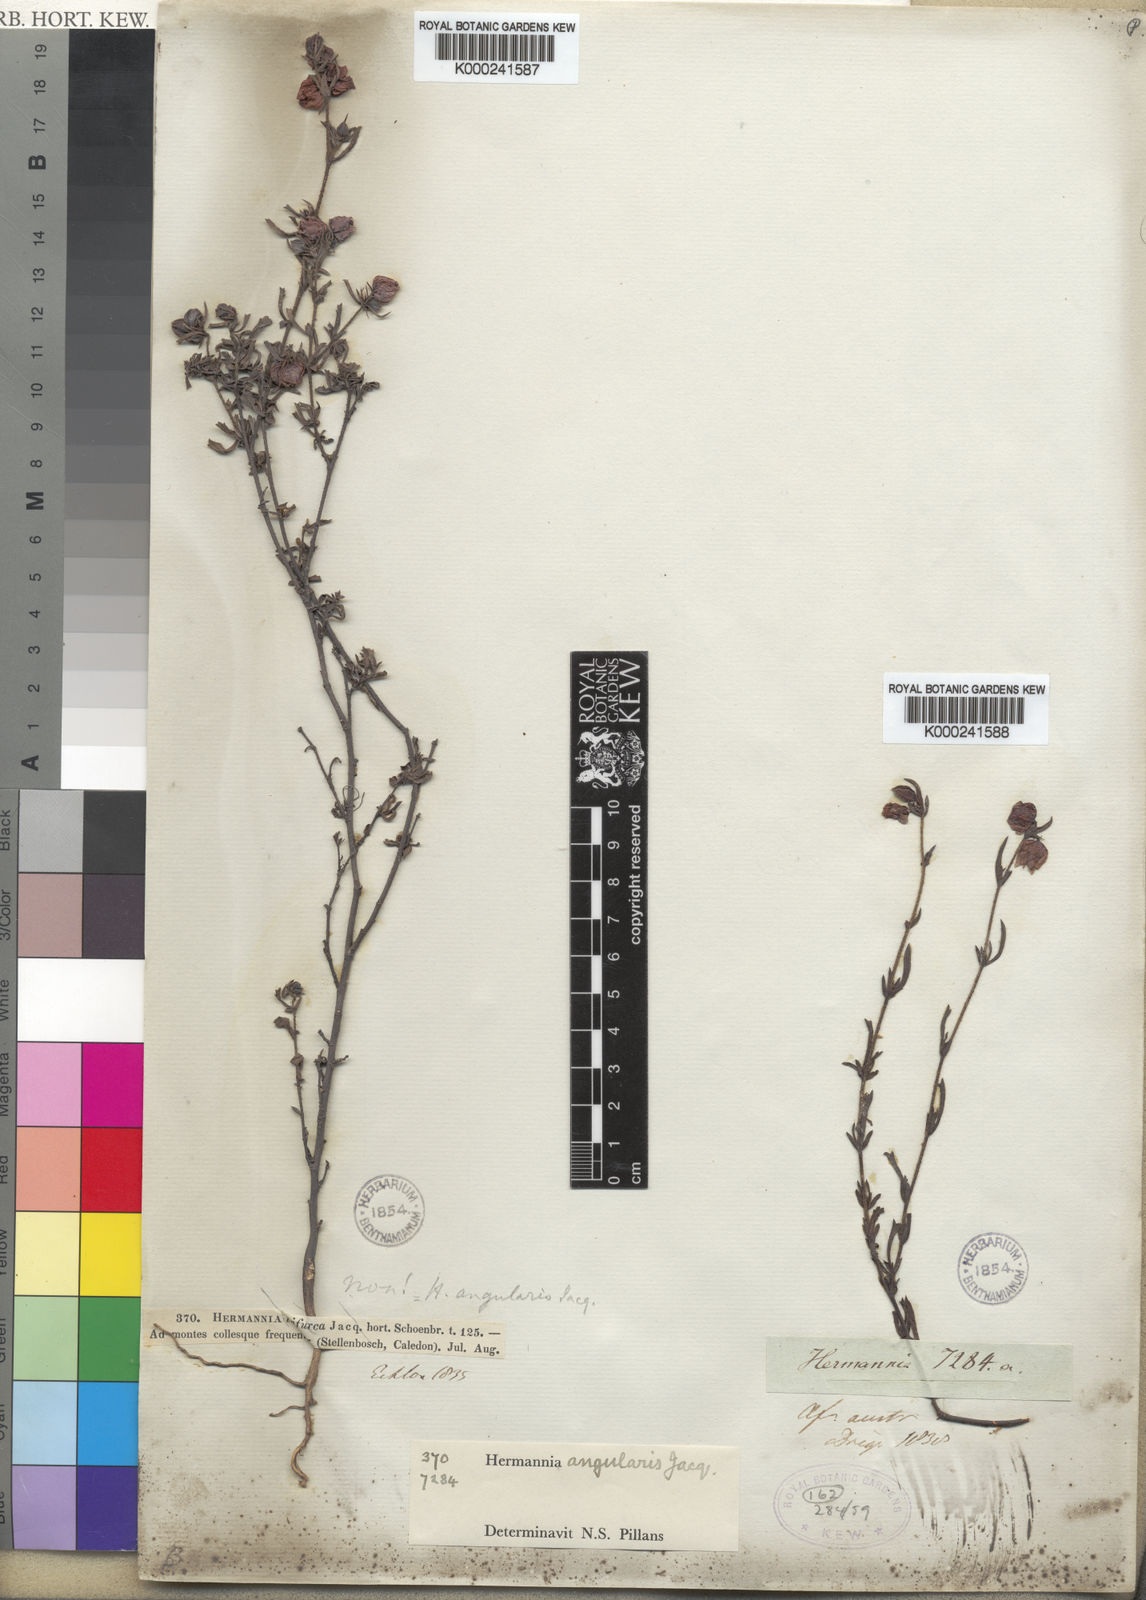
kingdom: Plantae
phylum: Tracheophyta
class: Magnoliopsida
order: Malvales
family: Malvaceae
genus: Hermannia
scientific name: Hermannia angularis
